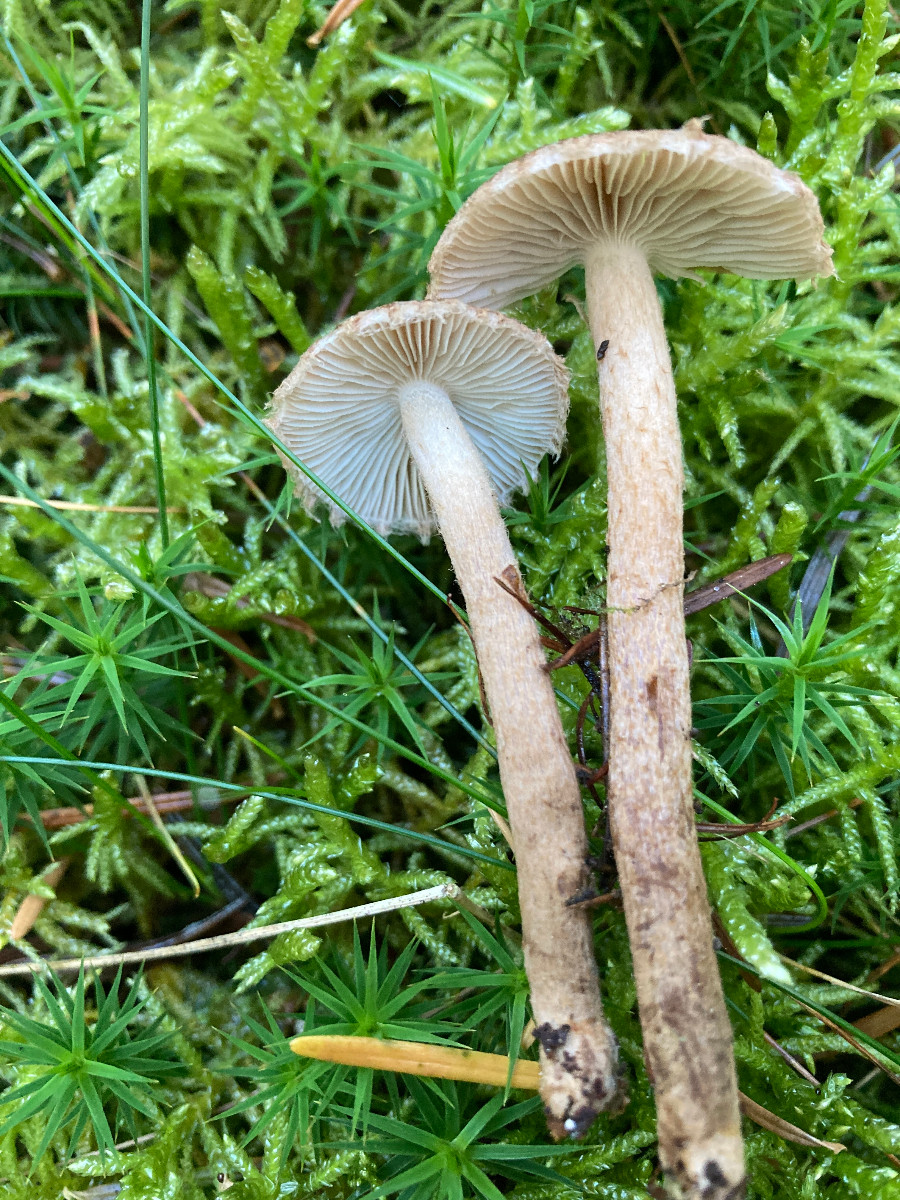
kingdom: Fungi
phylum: Basidiomycota
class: Agaricomycetes
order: Agaricales
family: Inocybaceae
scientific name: Inocybaceae
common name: trævlhatfamilien
